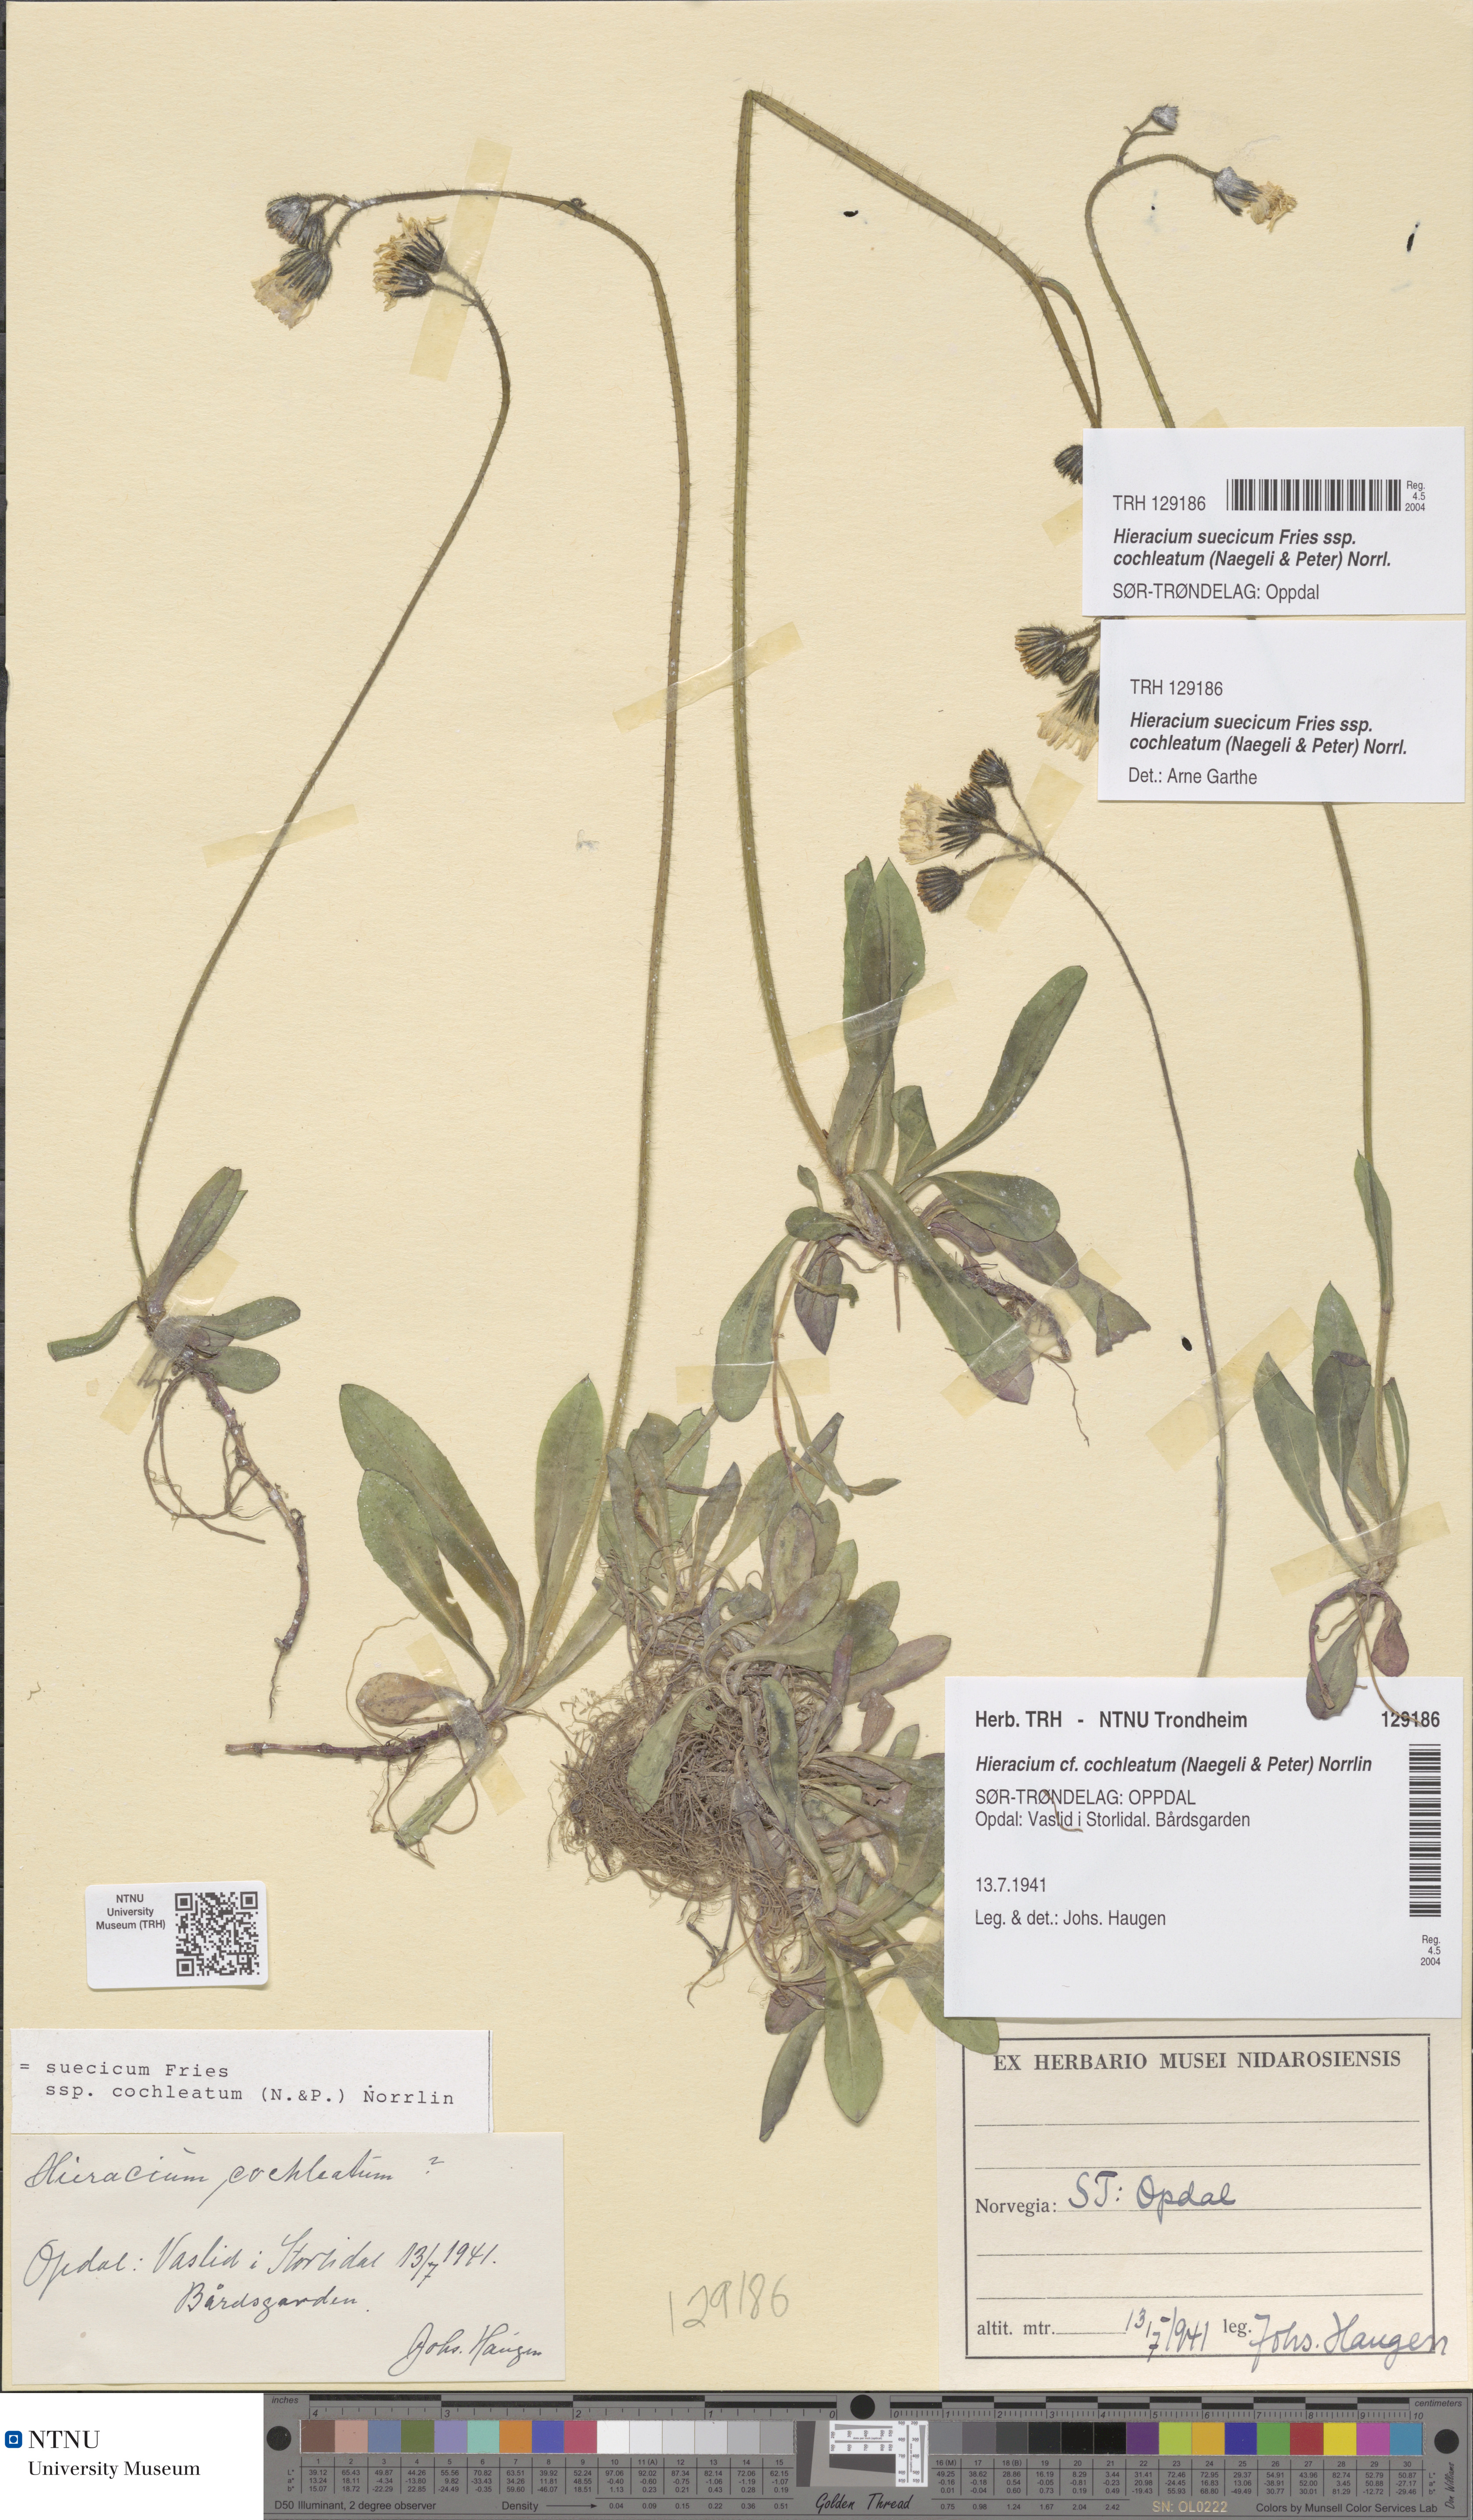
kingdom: Plantae
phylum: Tracheophyta
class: Magnoliopsida
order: Asterales
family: Asteraceae
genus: Pilosella
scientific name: Pilosella dubia
